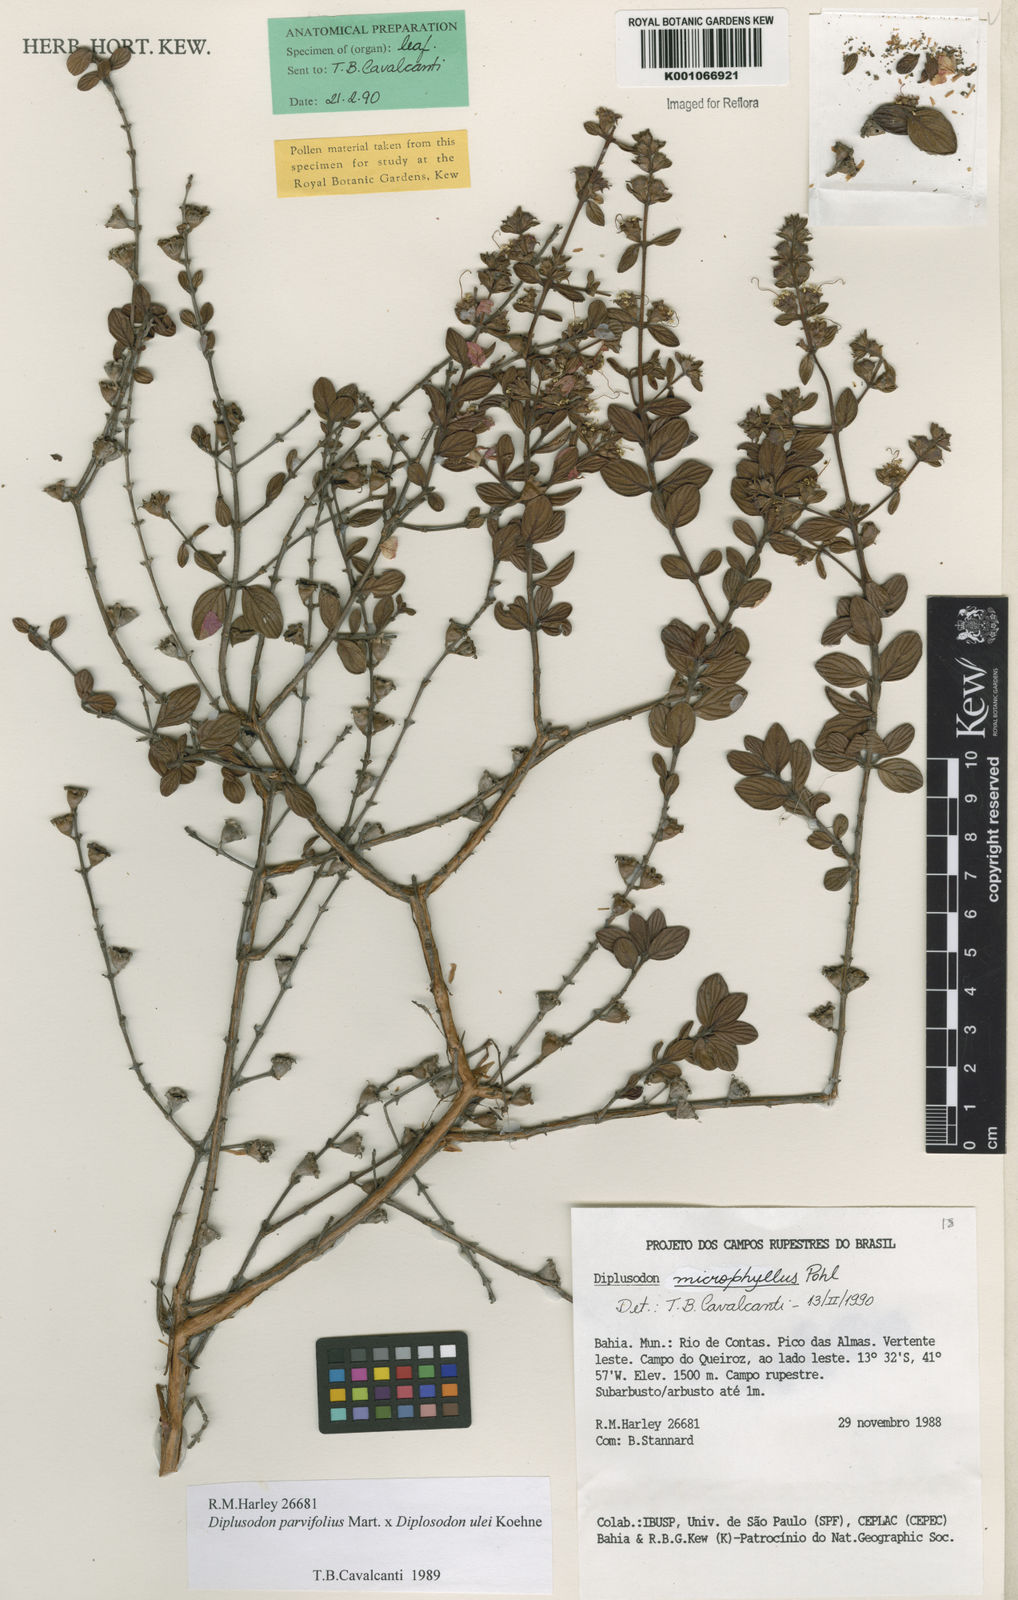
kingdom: Plantae
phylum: Tracheophyta
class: Magnoliopsida
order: Myrtales
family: Lythraceae
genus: Diplusodon
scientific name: Diplusodon microphyllus
